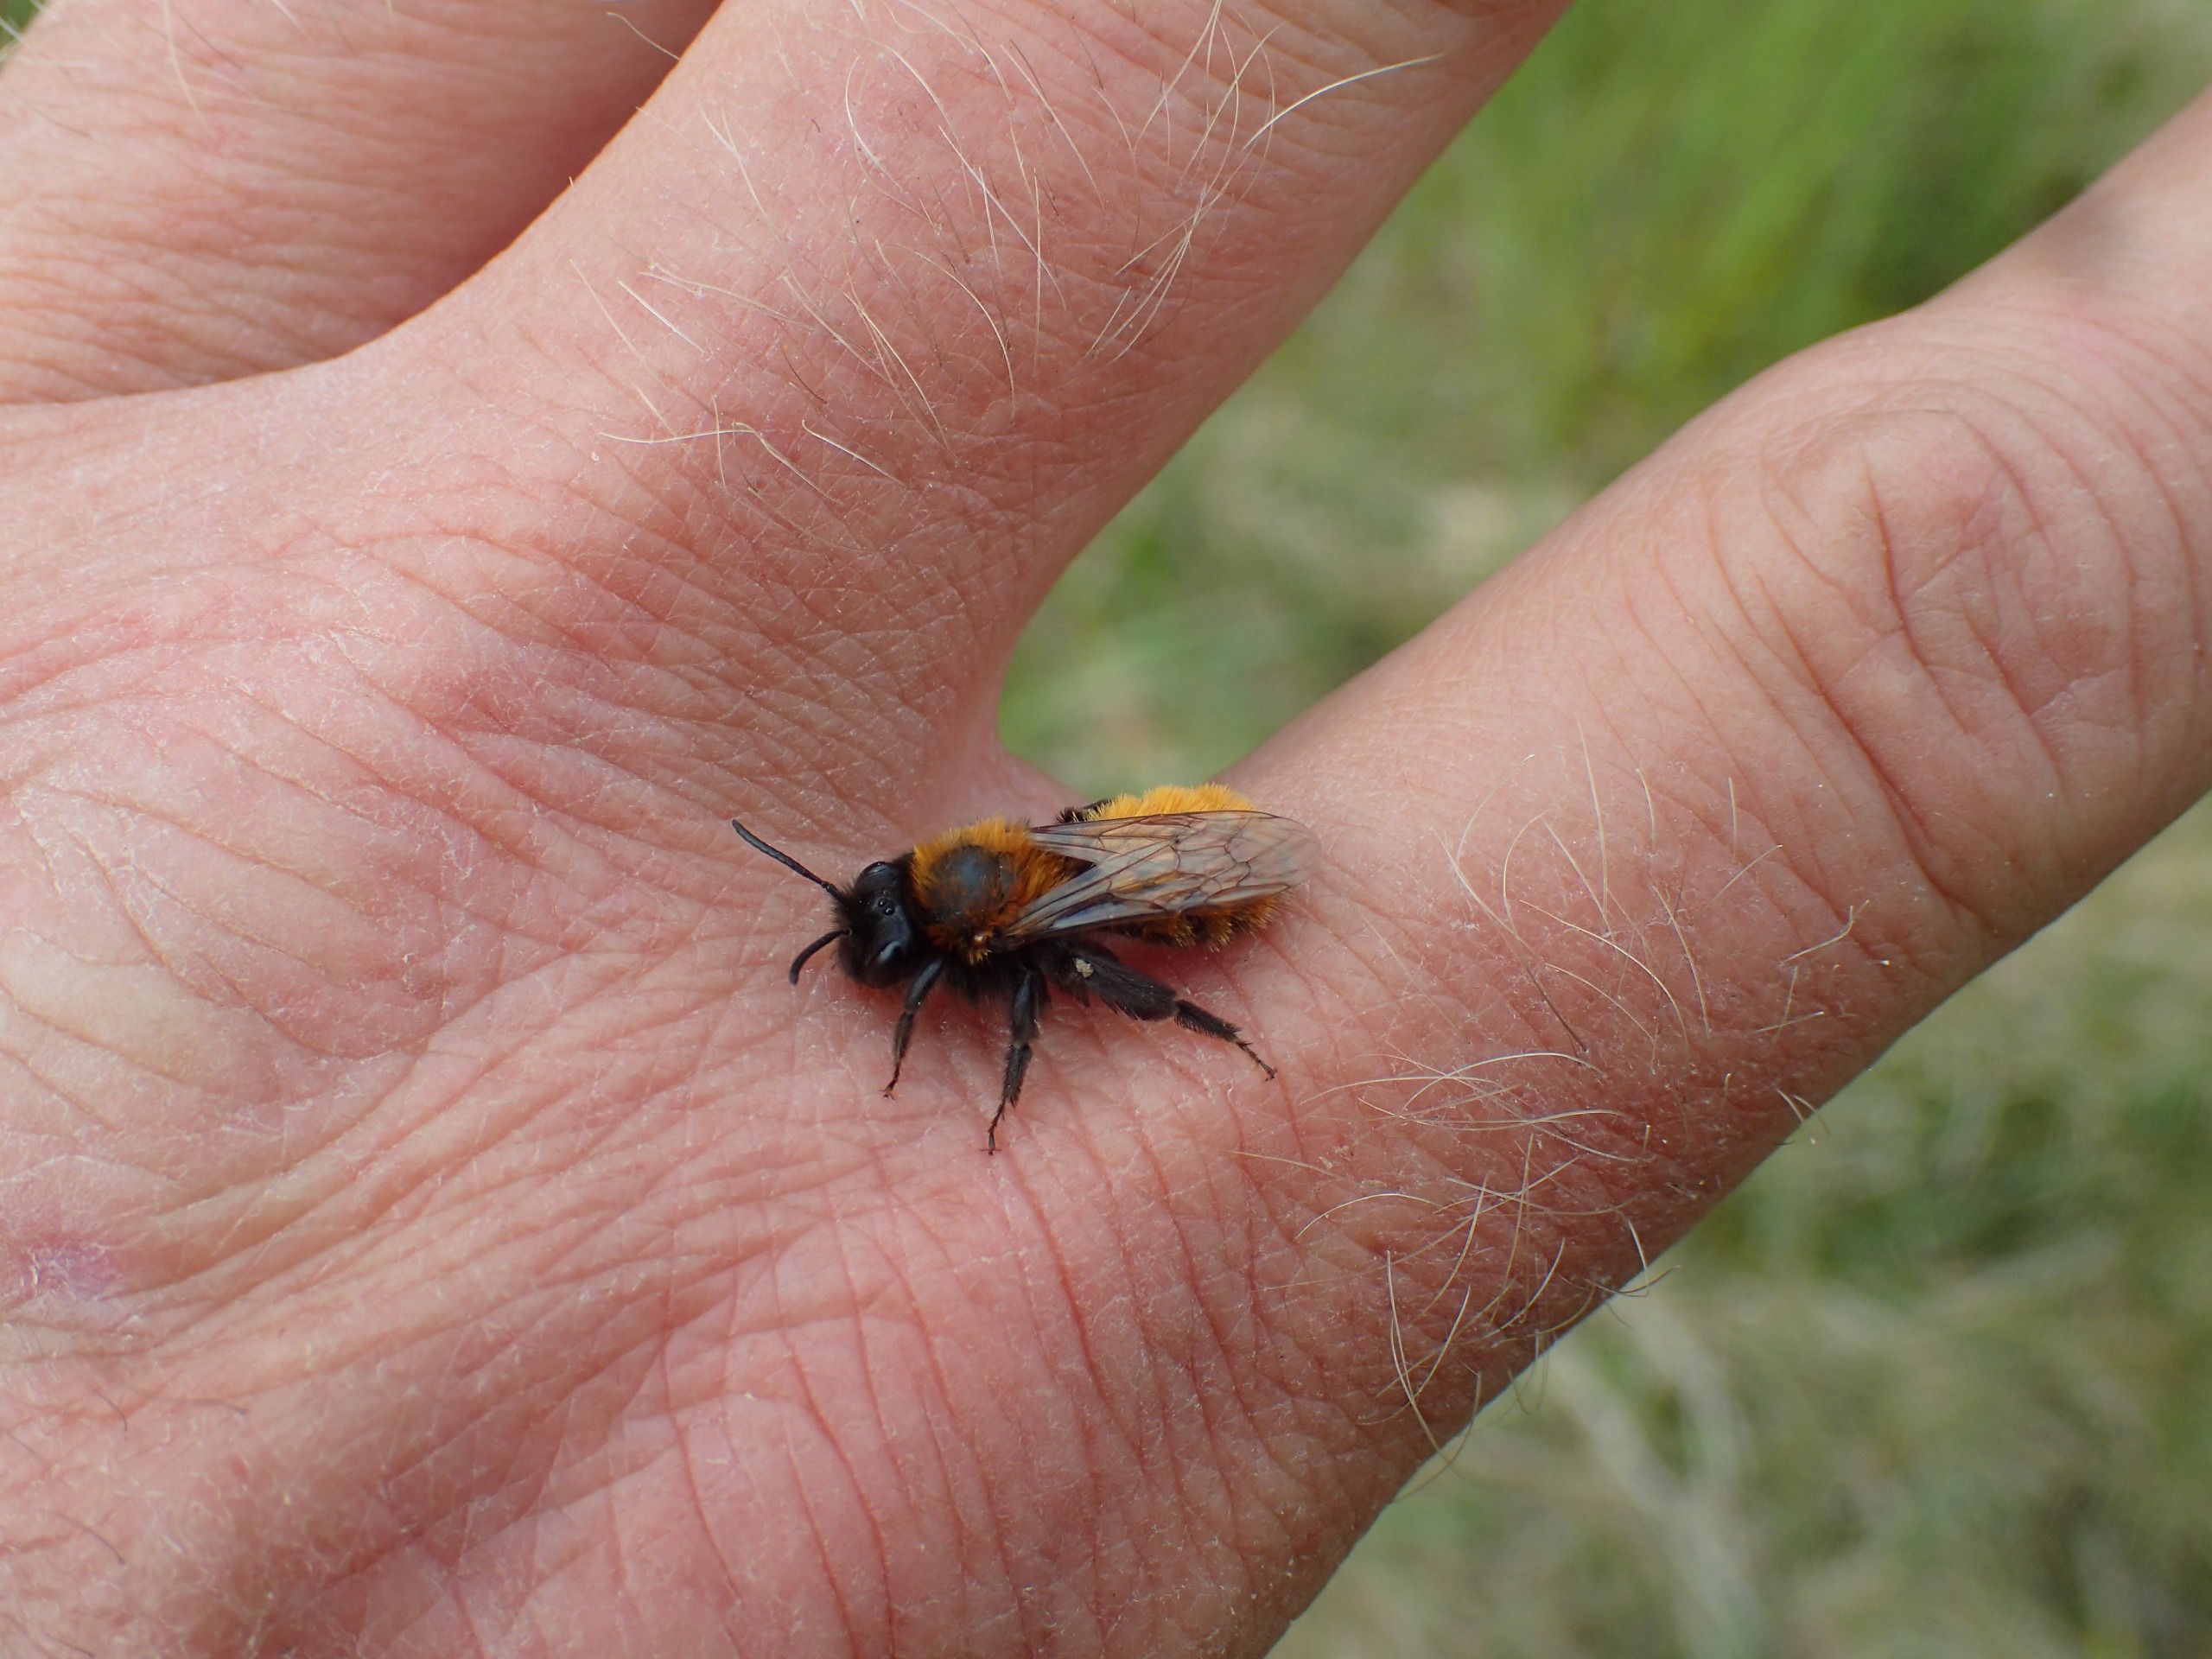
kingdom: Animalia
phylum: Arthropoda
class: Insecta
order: Hymenoptera
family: Andrenidae
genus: Andrena
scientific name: Andrena fulva
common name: Rødpelset jordbi
